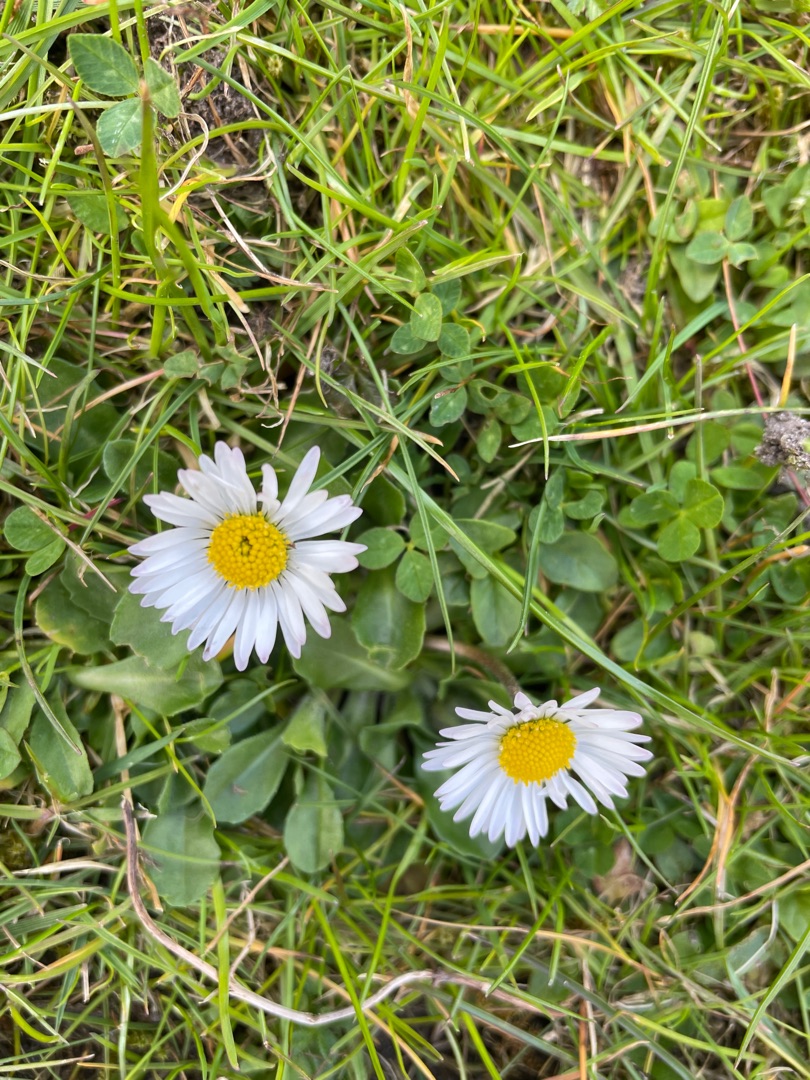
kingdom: Plantae
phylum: Tracheophyta
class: Magnoliopsida
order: Asterales
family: Asteraceae
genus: Bellis
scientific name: Bellis perennis
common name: Tusindfryd
